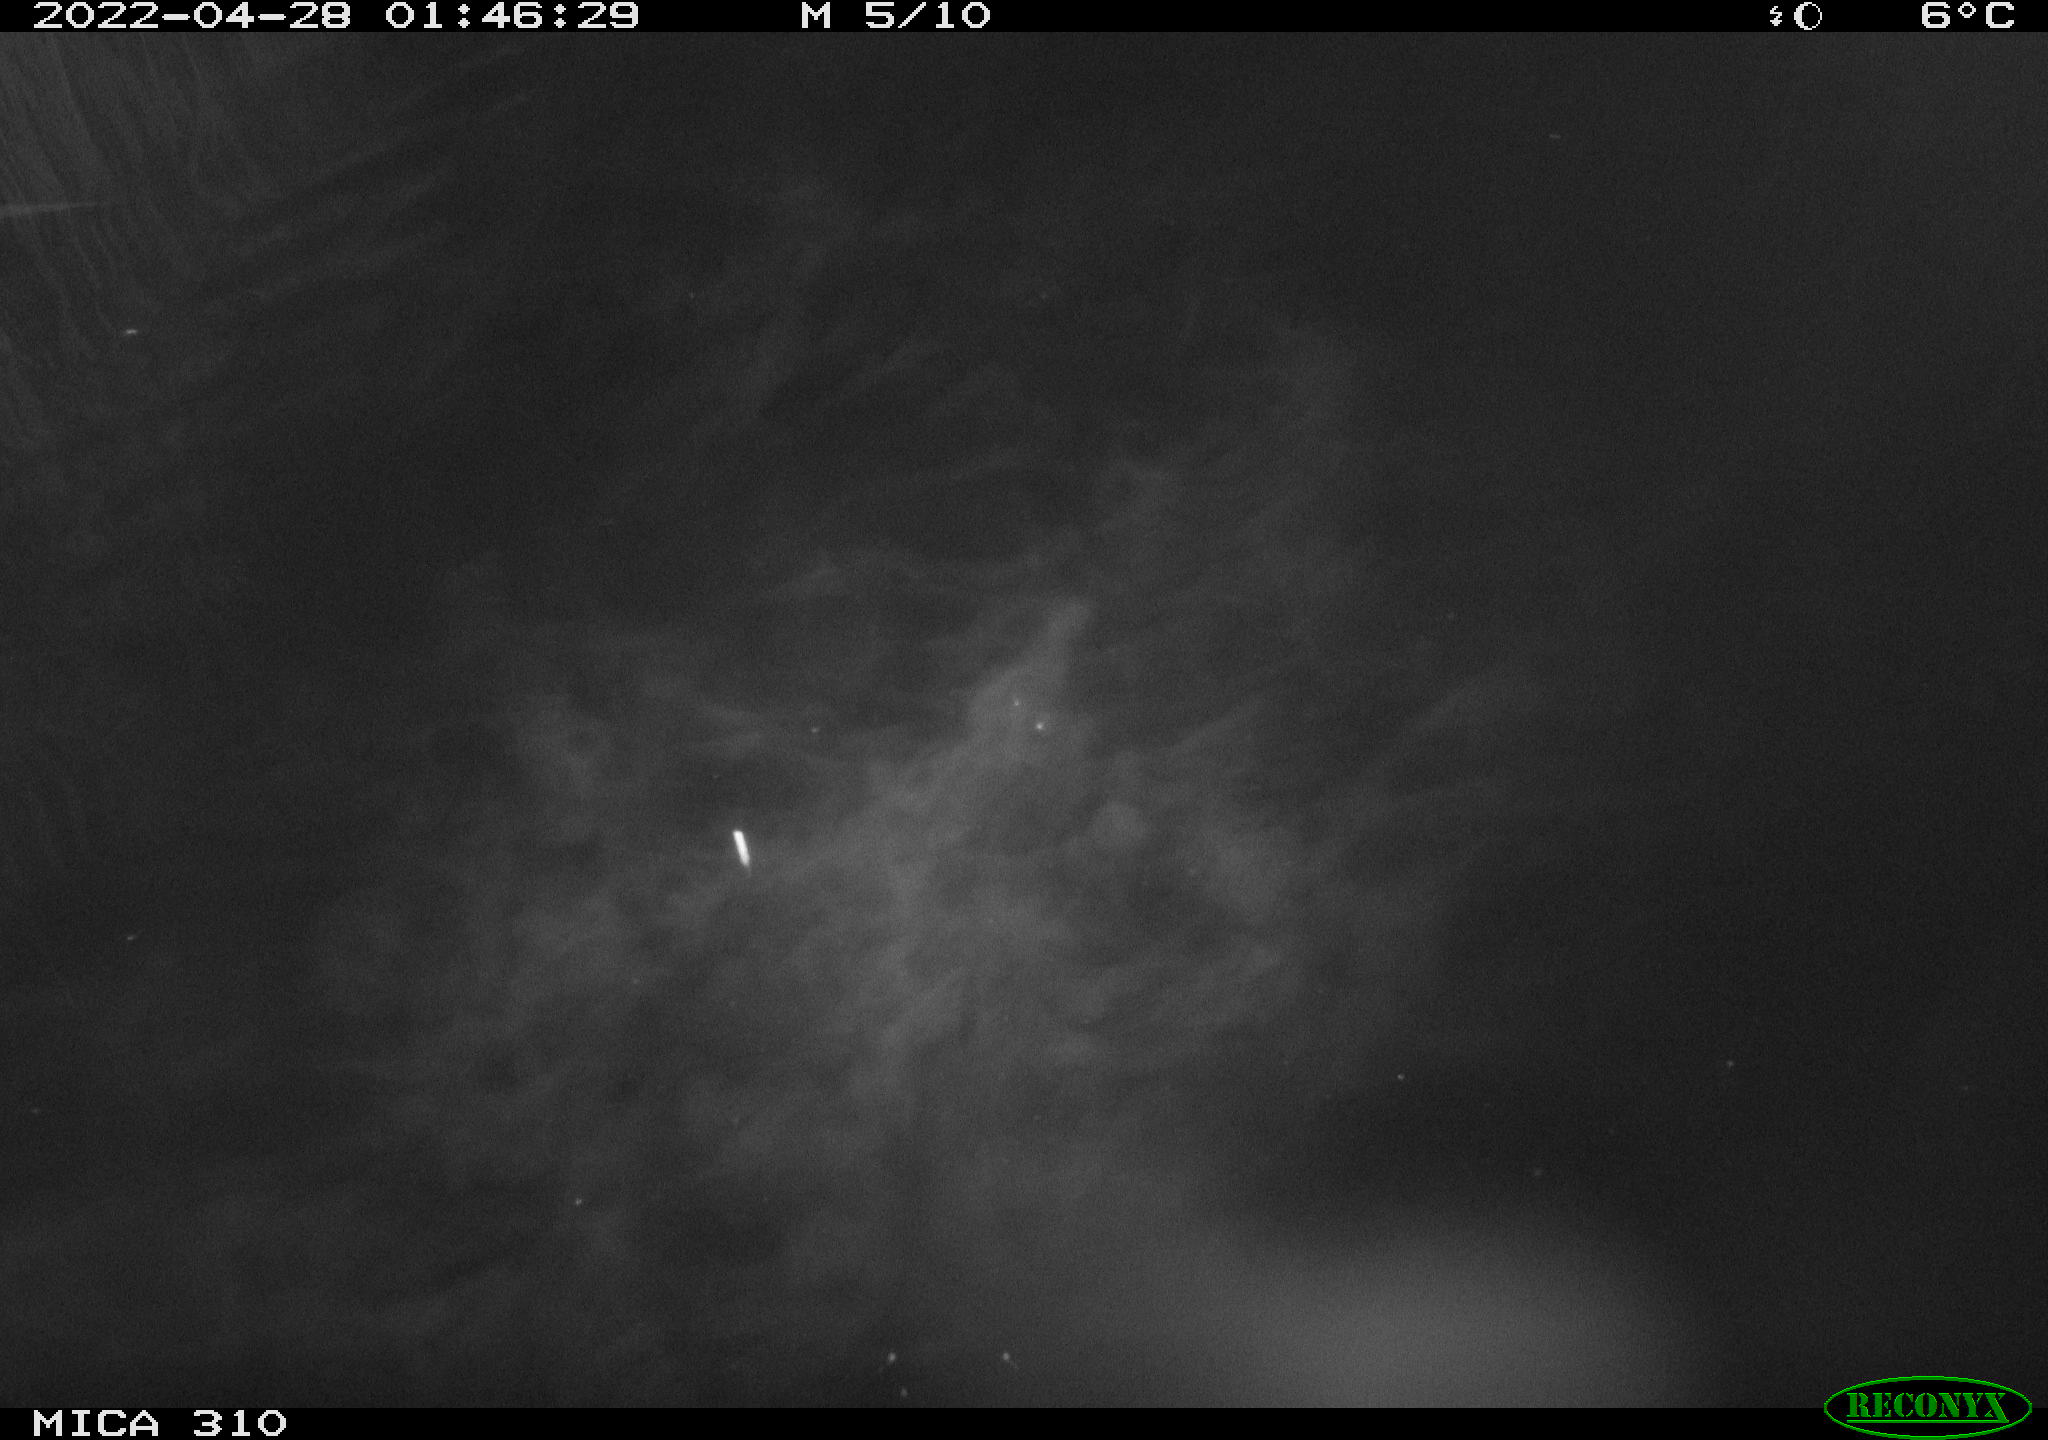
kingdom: Animalia
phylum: Chordata
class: Aves
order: Anseriformes
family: Anatidae
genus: Anas
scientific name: Anas platyrhynchos
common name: Mallard
